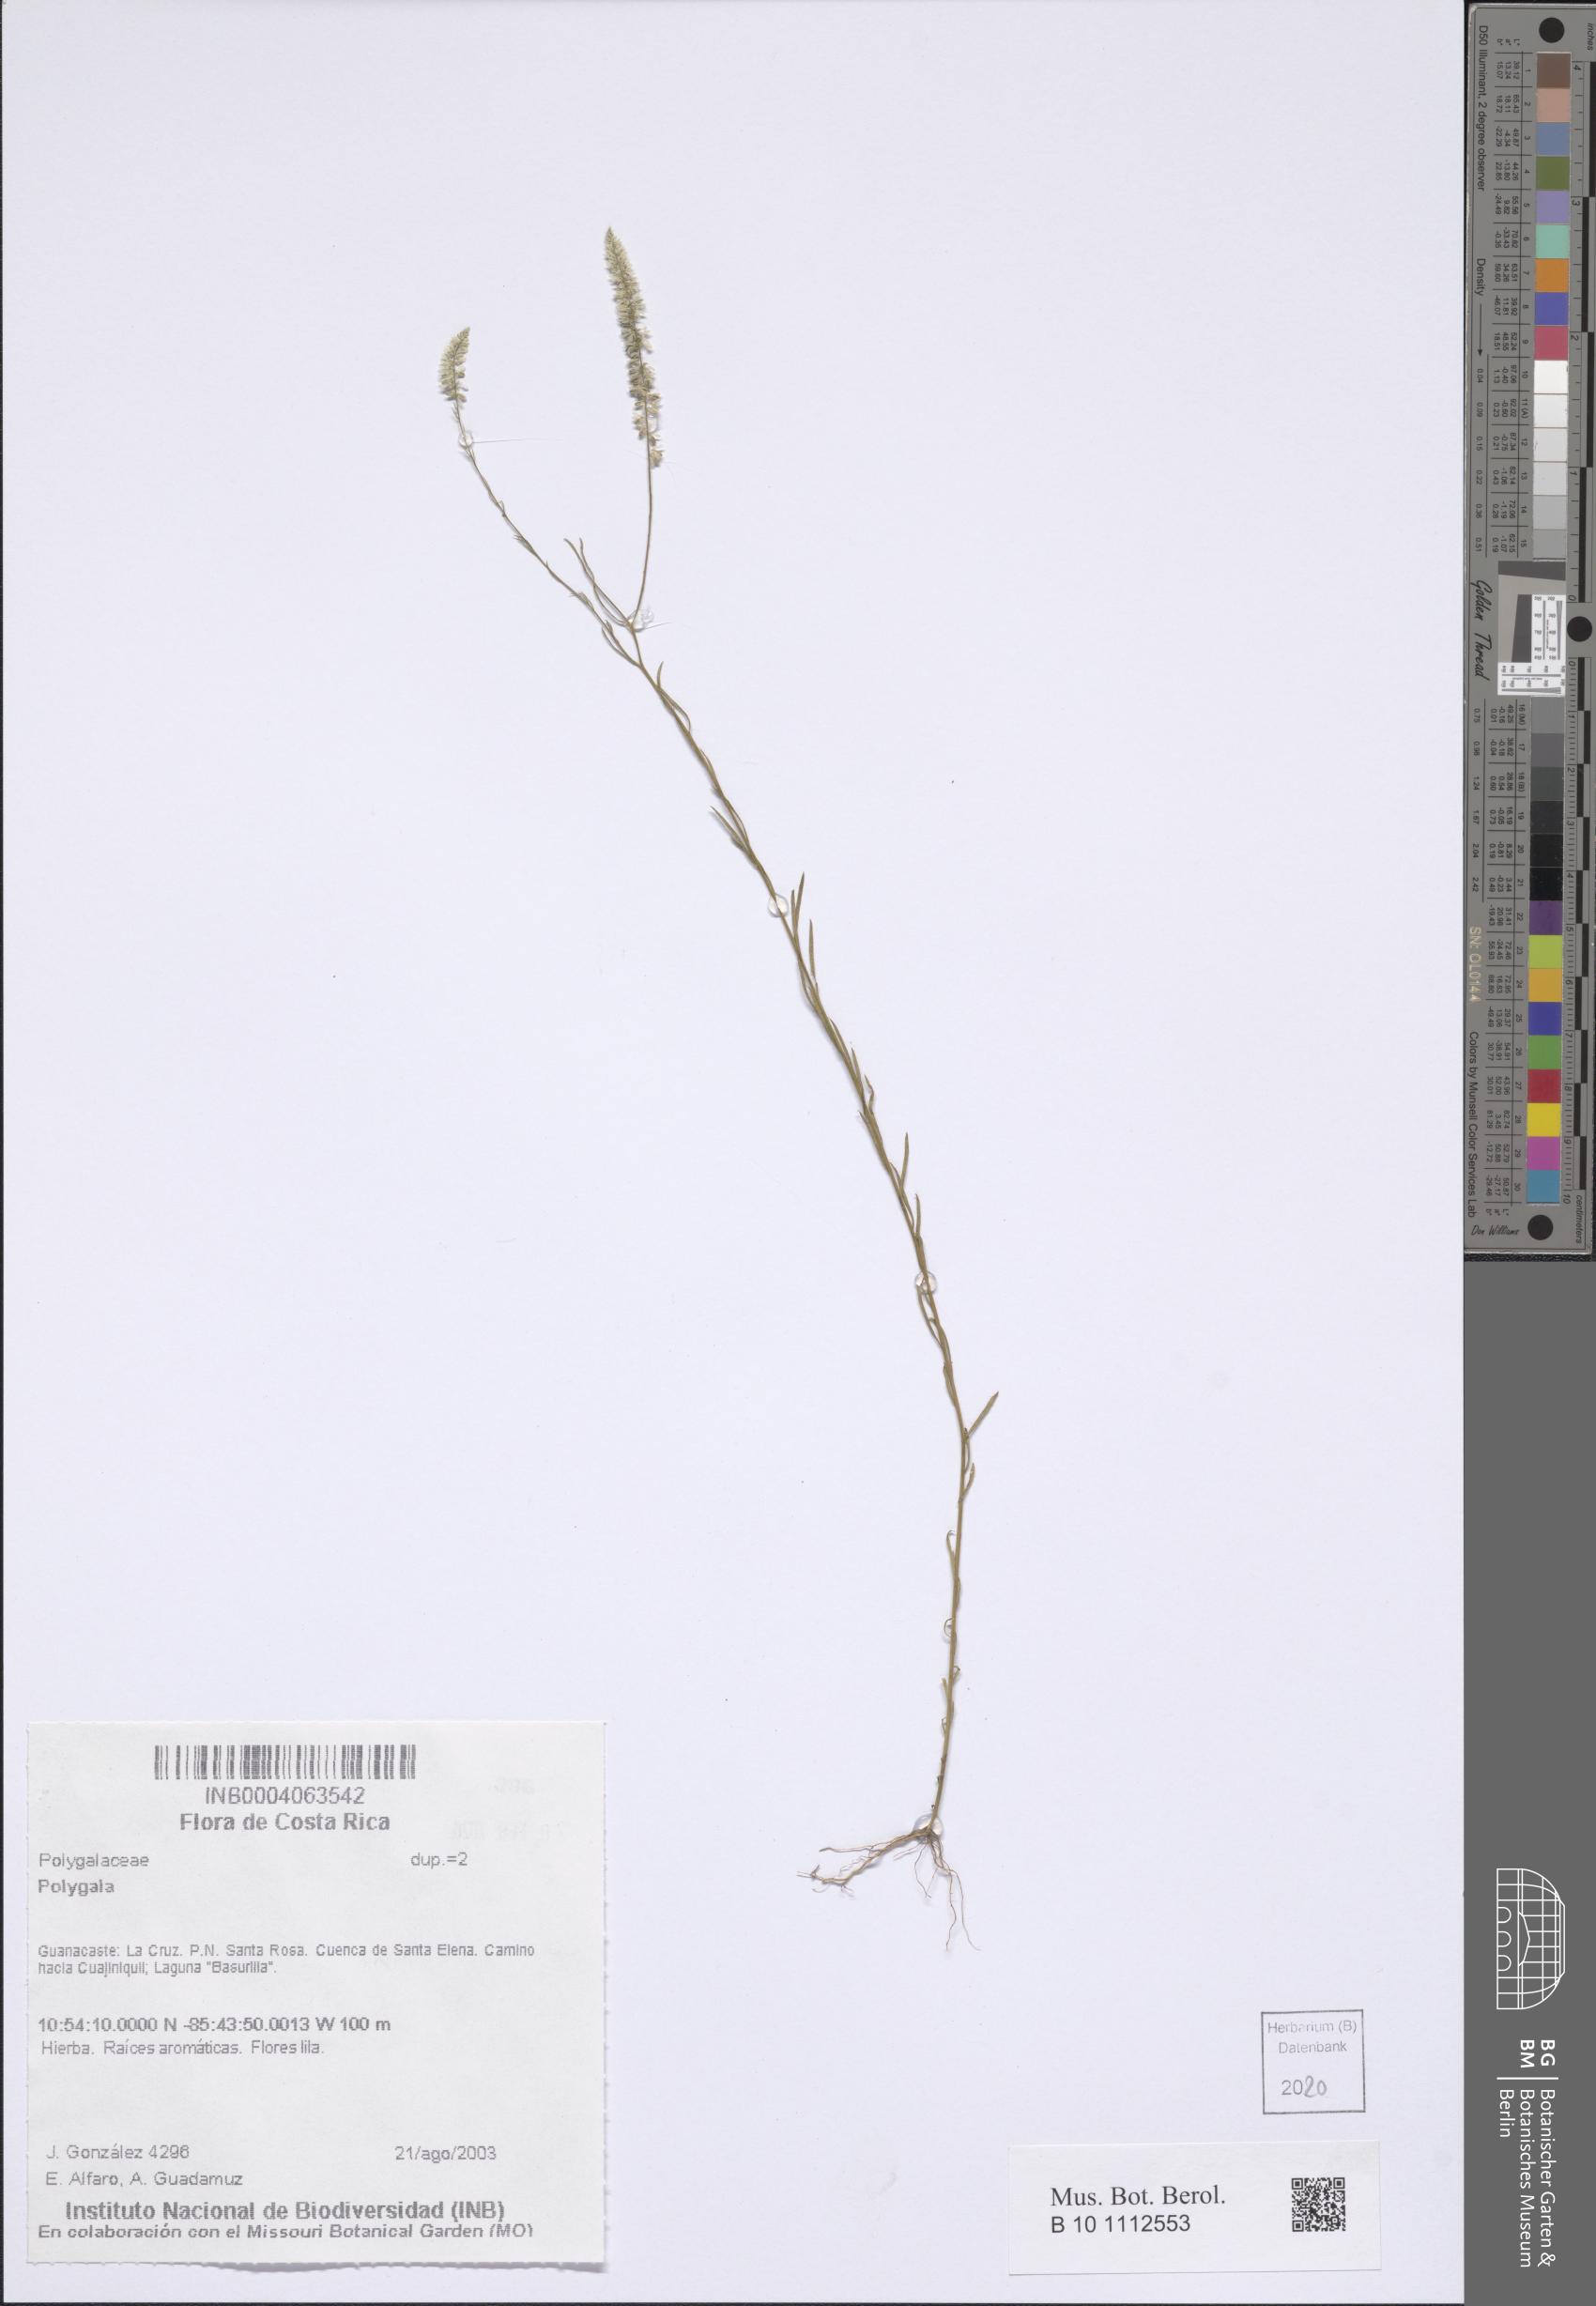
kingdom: Plantae
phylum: Tracheophyta
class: Magnoliopsida
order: Fabales
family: Polygalaceae
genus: Polygala
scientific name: Polygala
